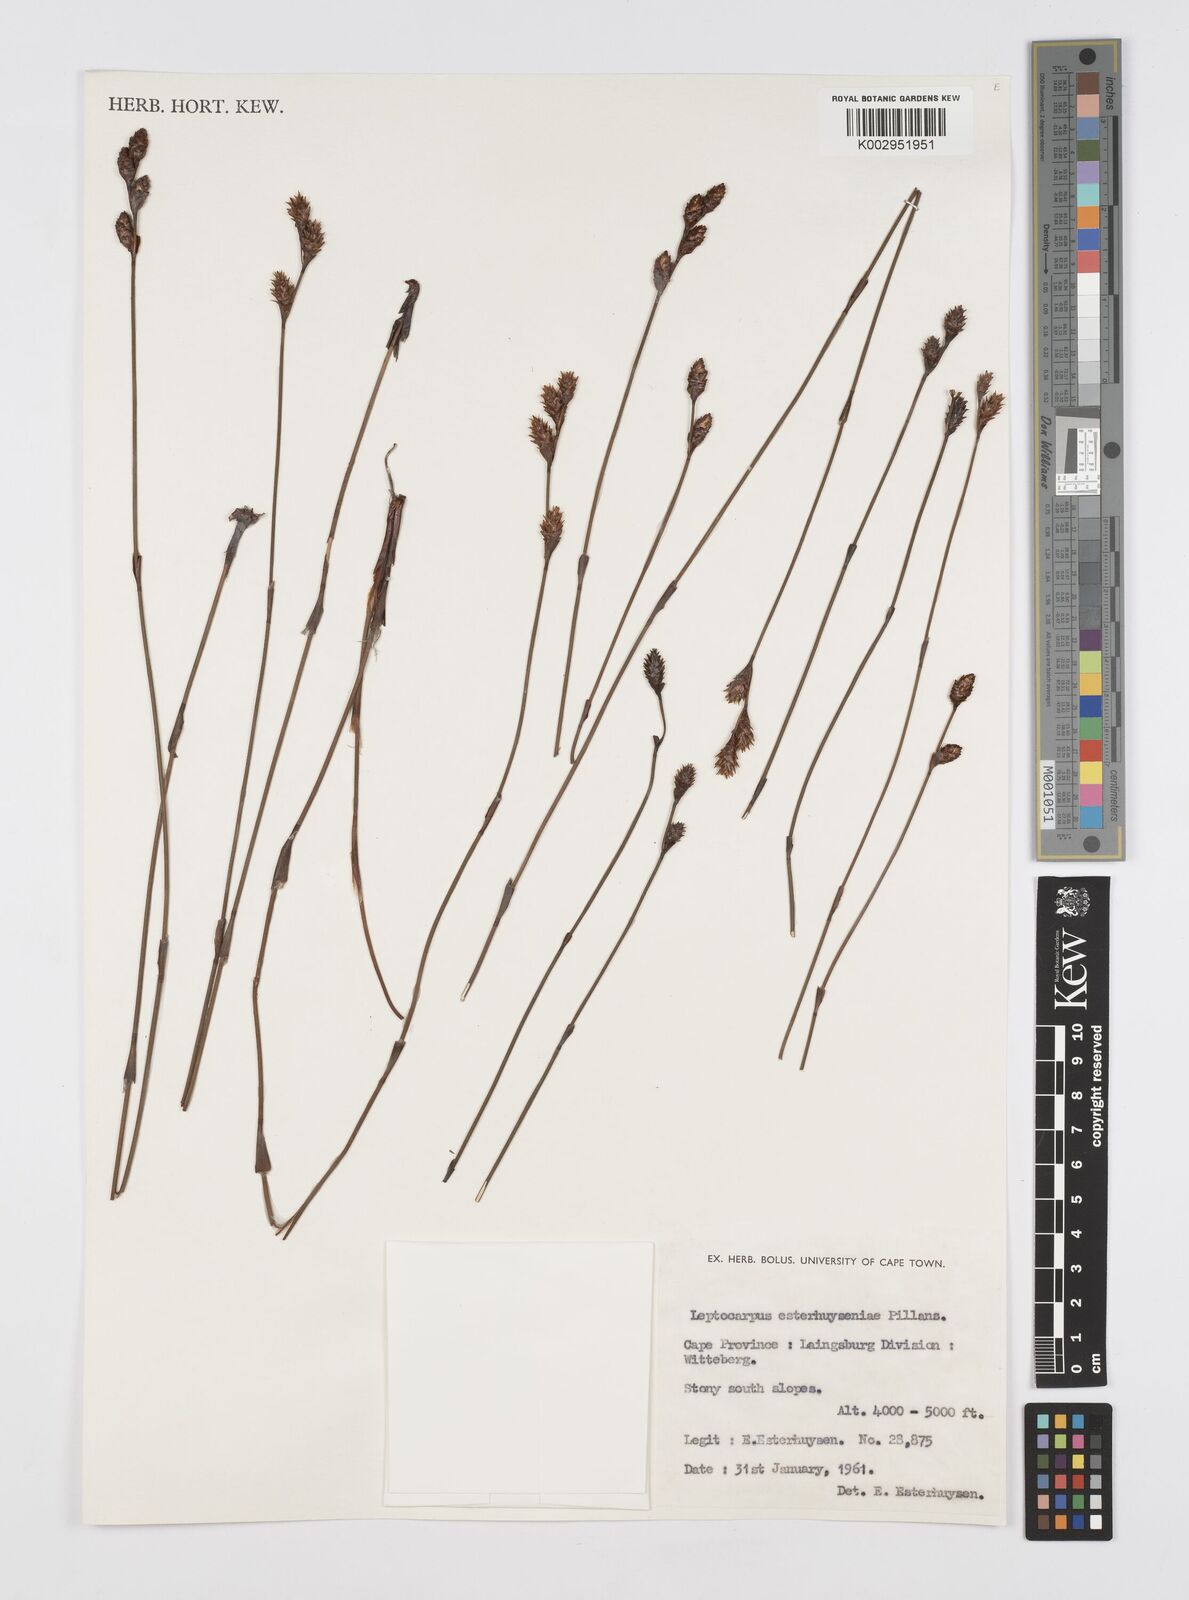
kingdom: Plantae
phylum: Tracheophyta
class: Liliopsida
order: Poales
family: Restionaceae
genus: Restio
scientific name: Restio esterhuyseniae
